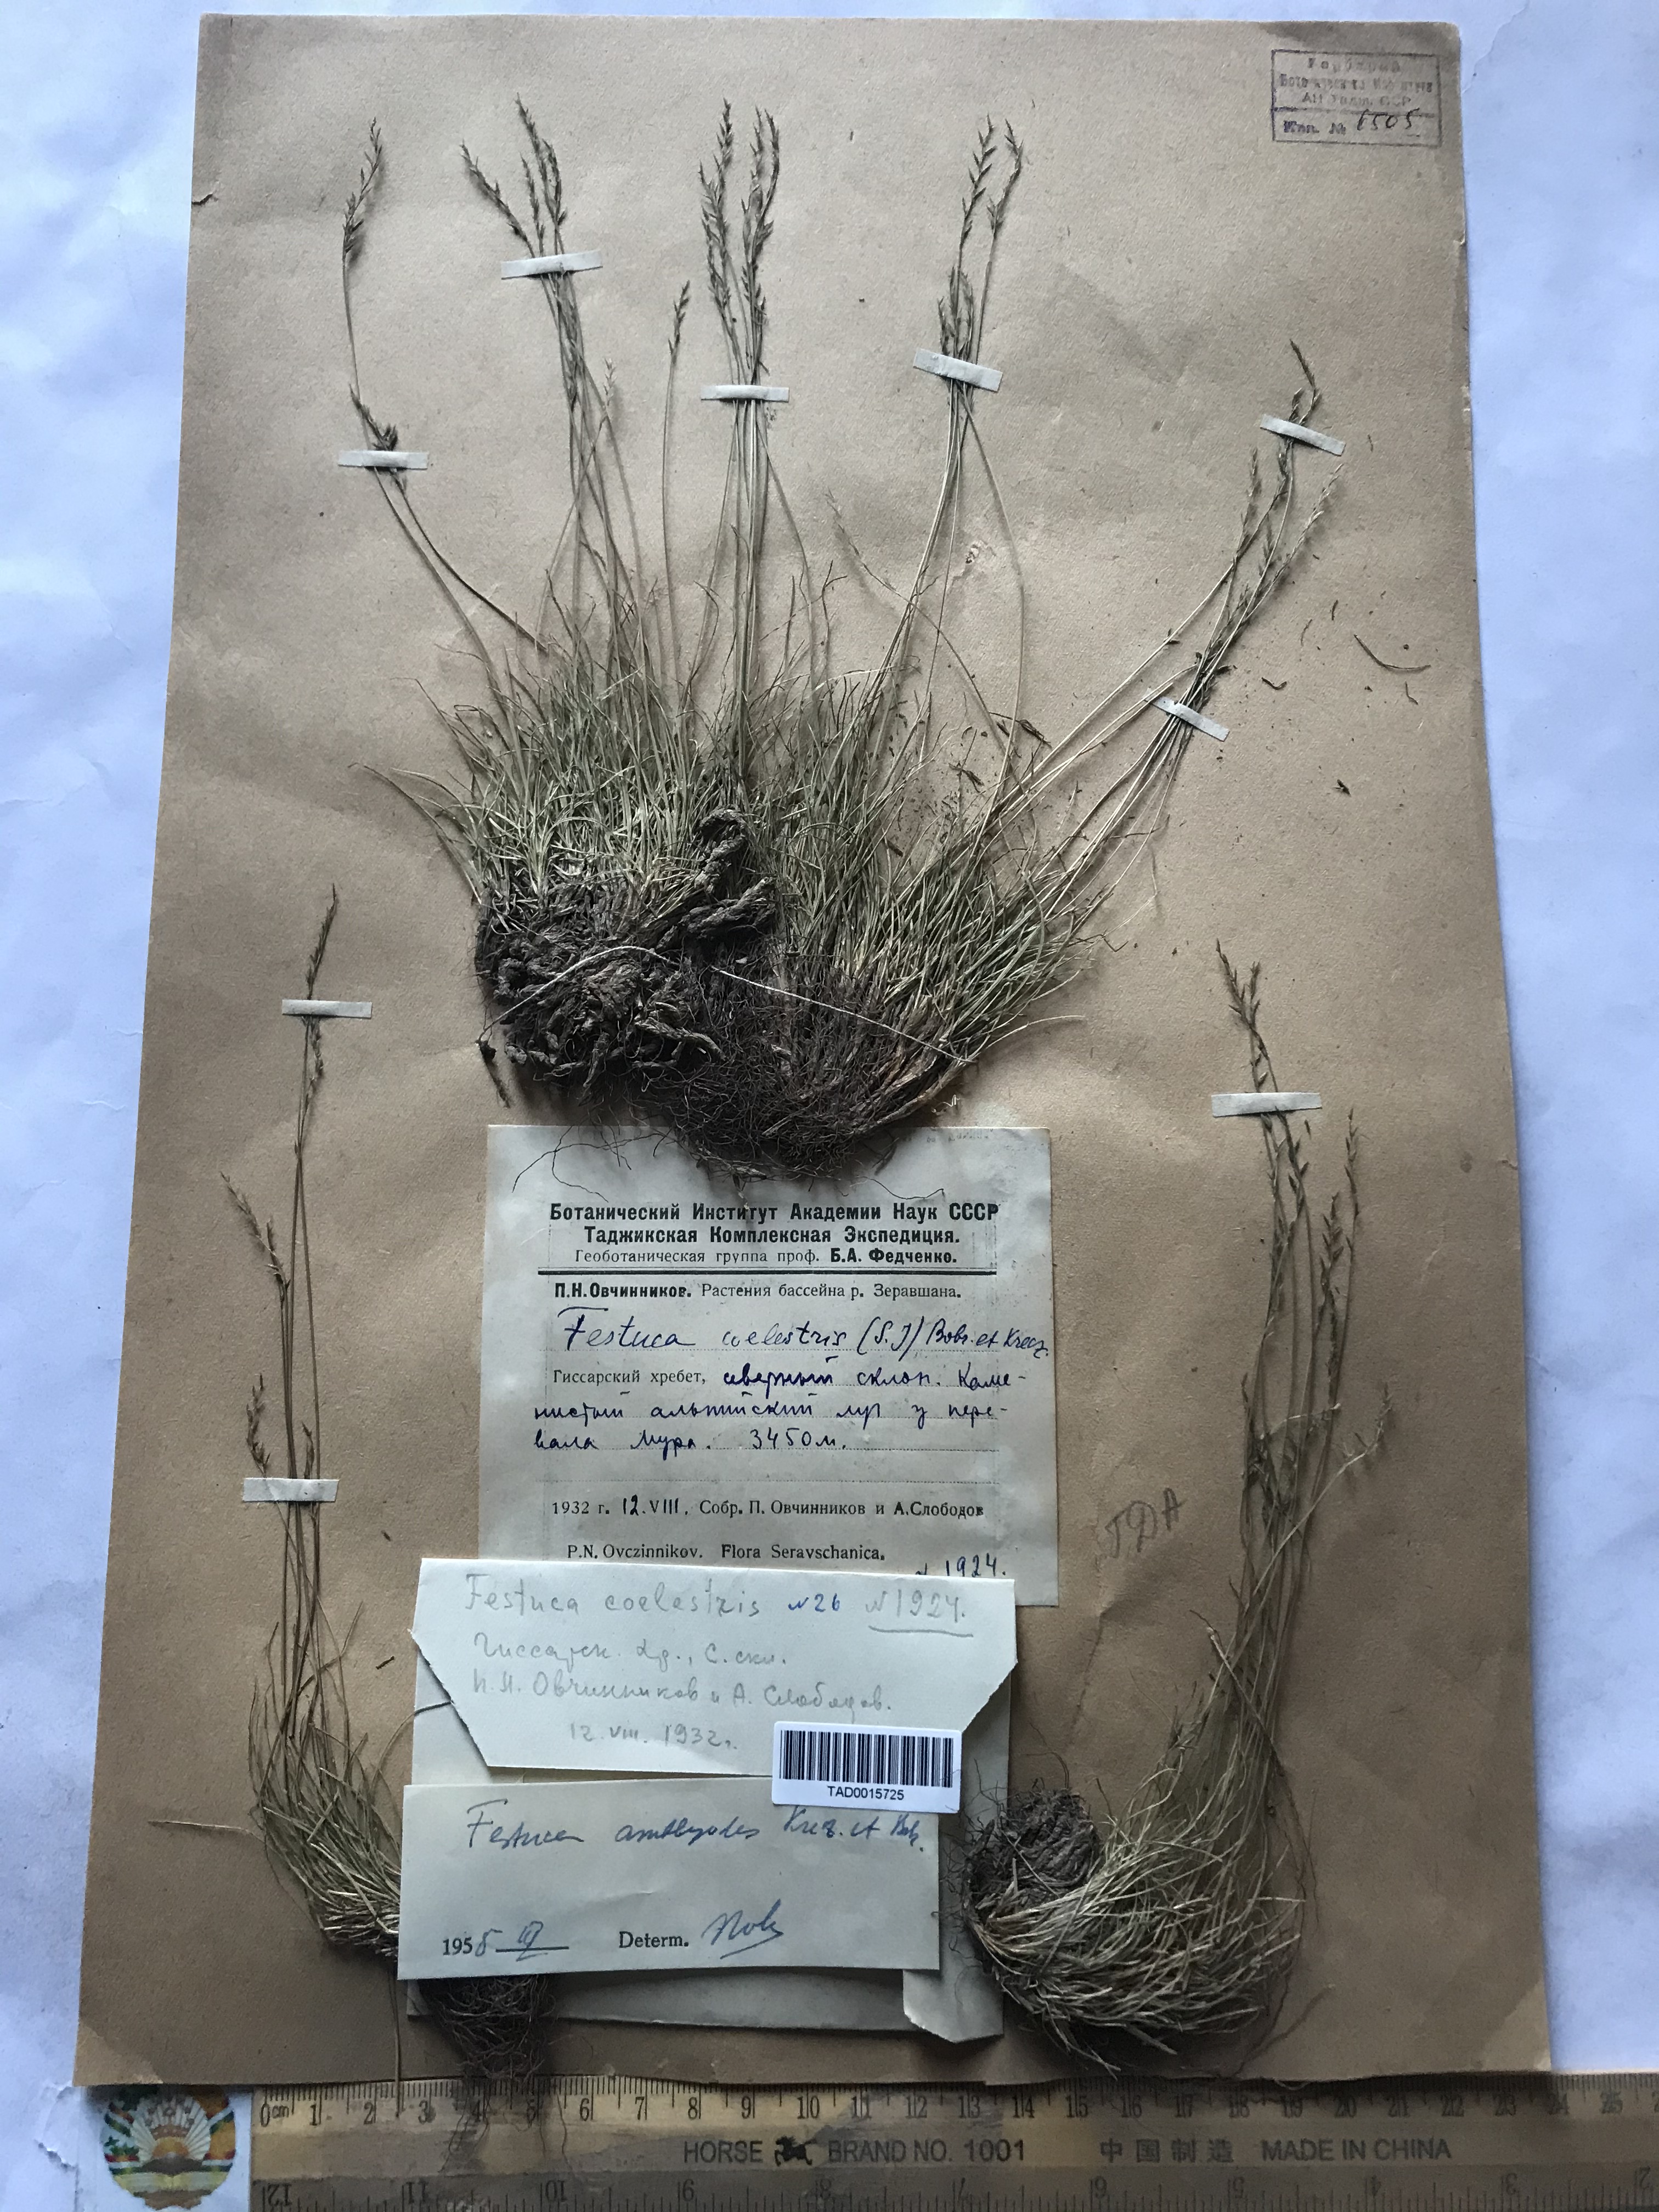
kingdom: Plantae
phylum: Tracheophyta
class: Liliopsida
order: Poales
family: Poaceae
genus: Festuca
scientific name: Festuca amblyodes
